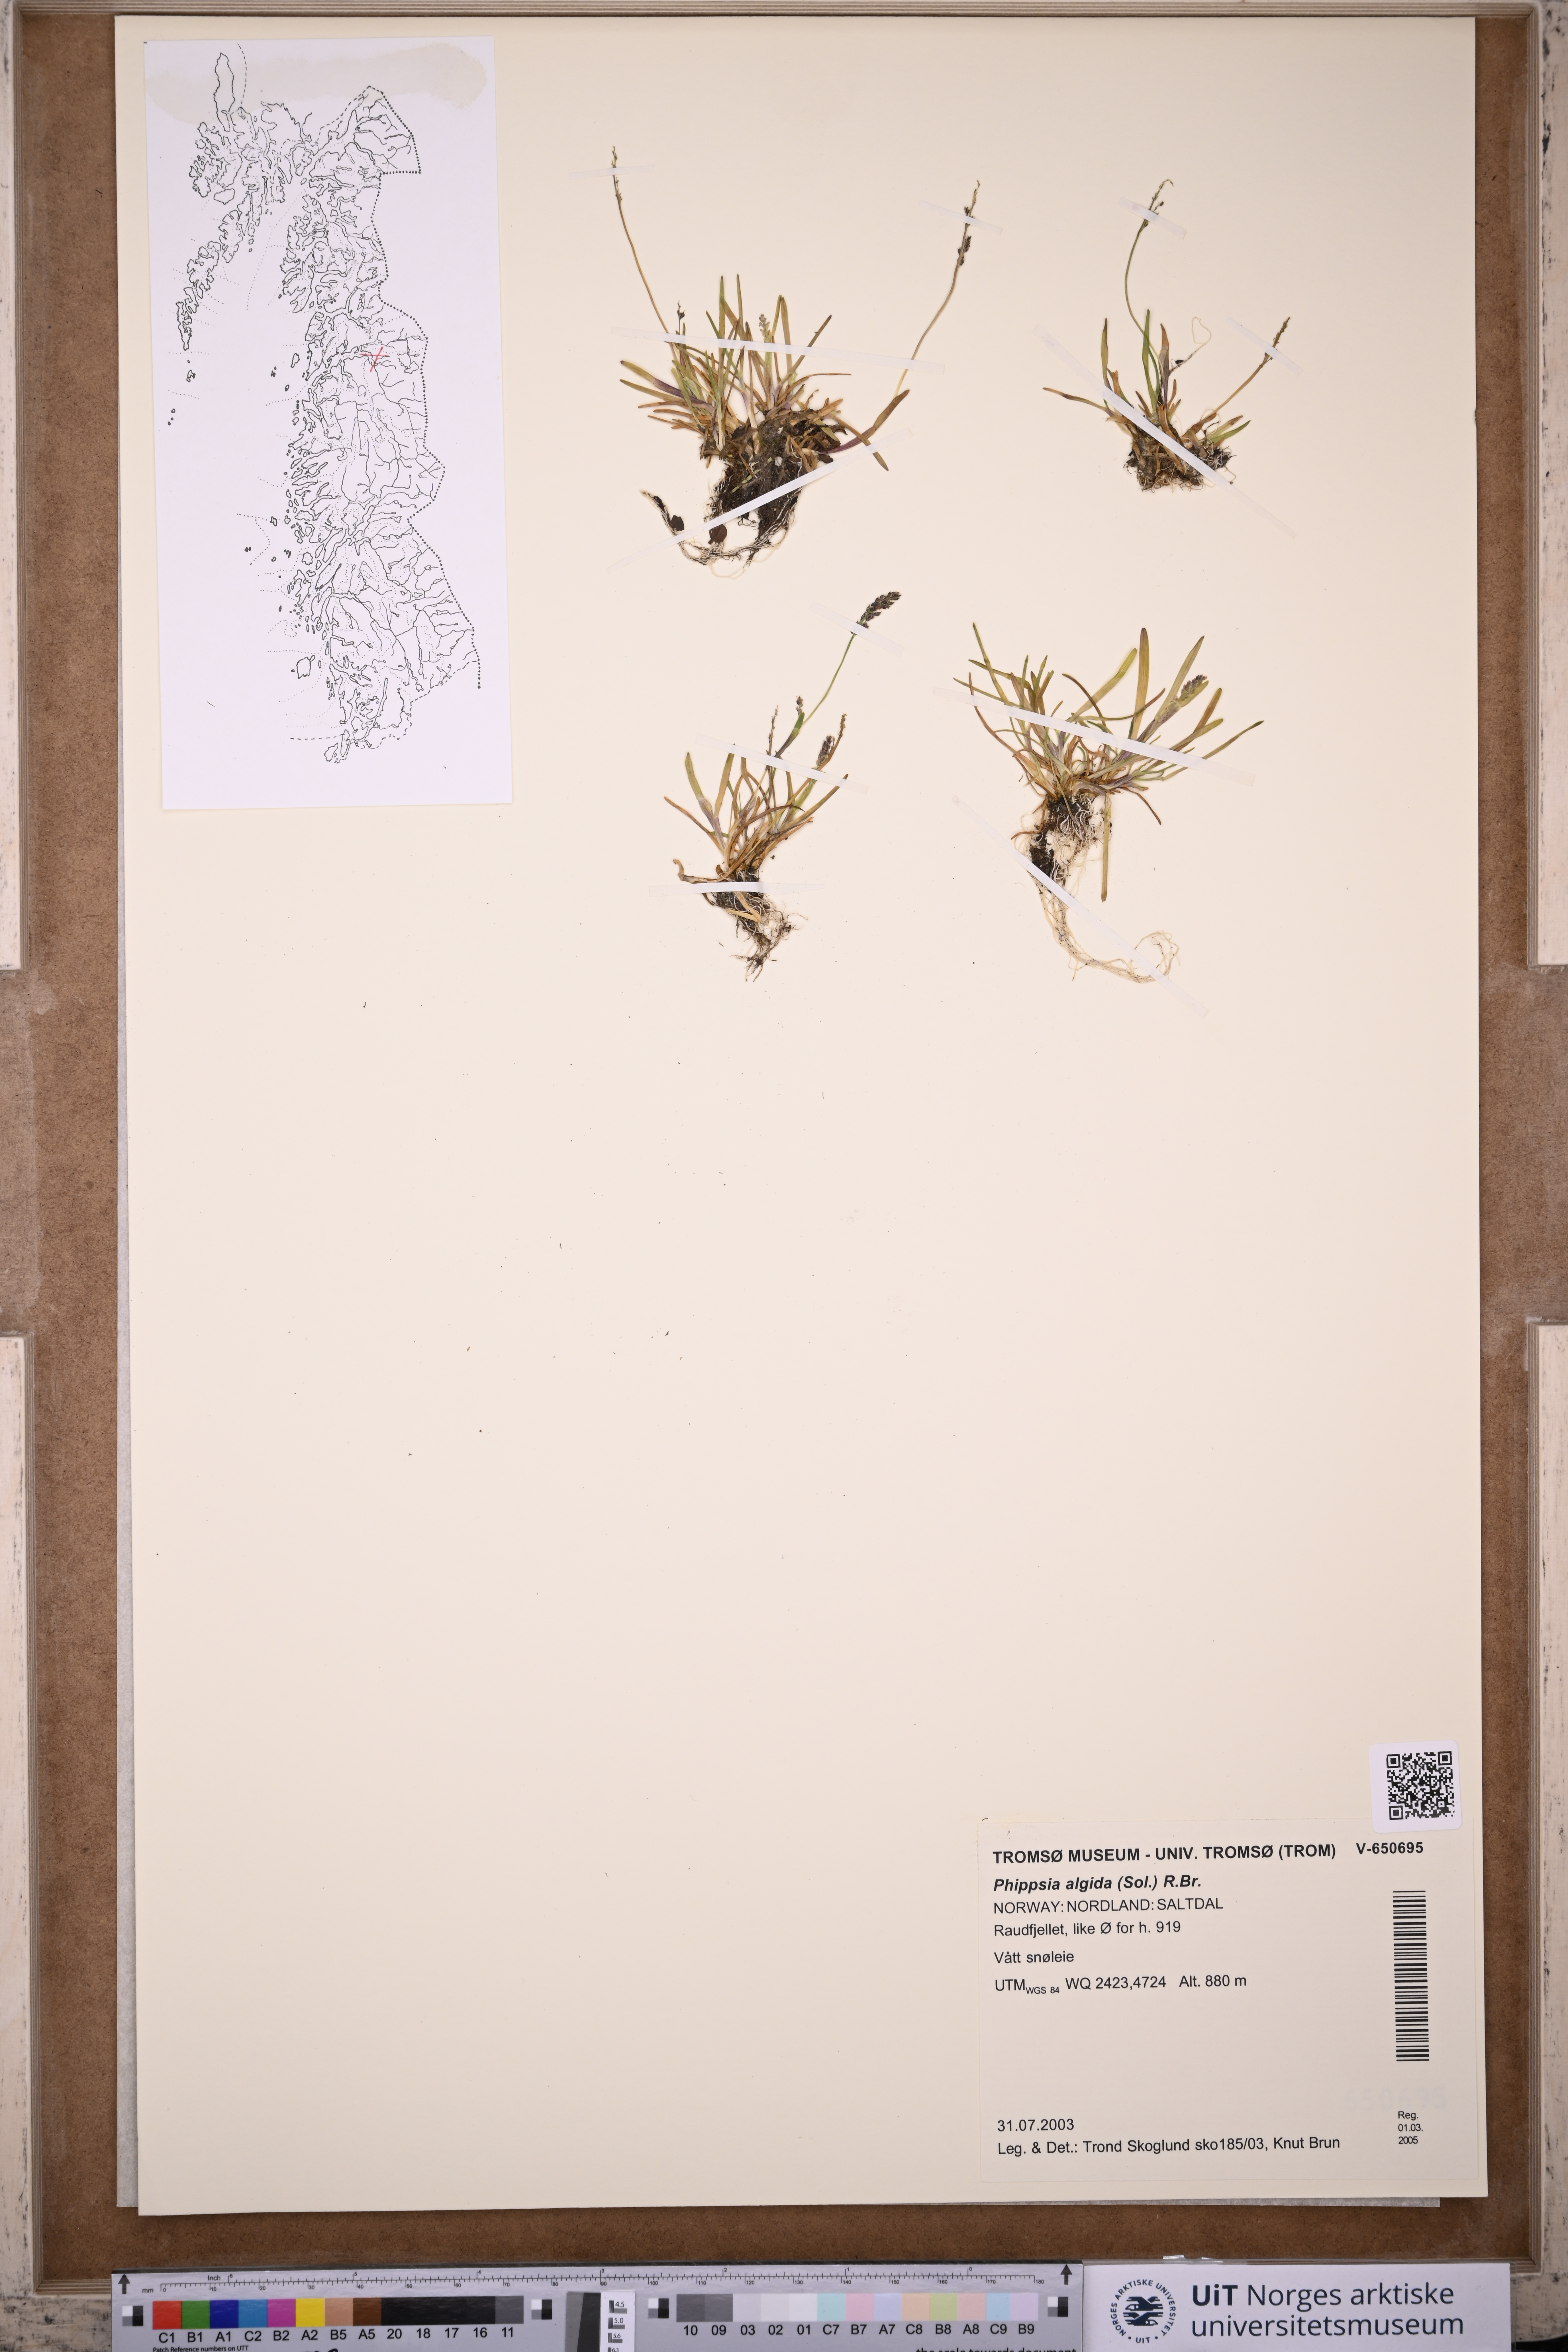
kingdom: Plantae
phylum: Tracheophyta
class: Liliopsida
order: Poales
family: Poaceae
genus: Phippsia
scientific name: Phippsia algida
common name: Ice grass
